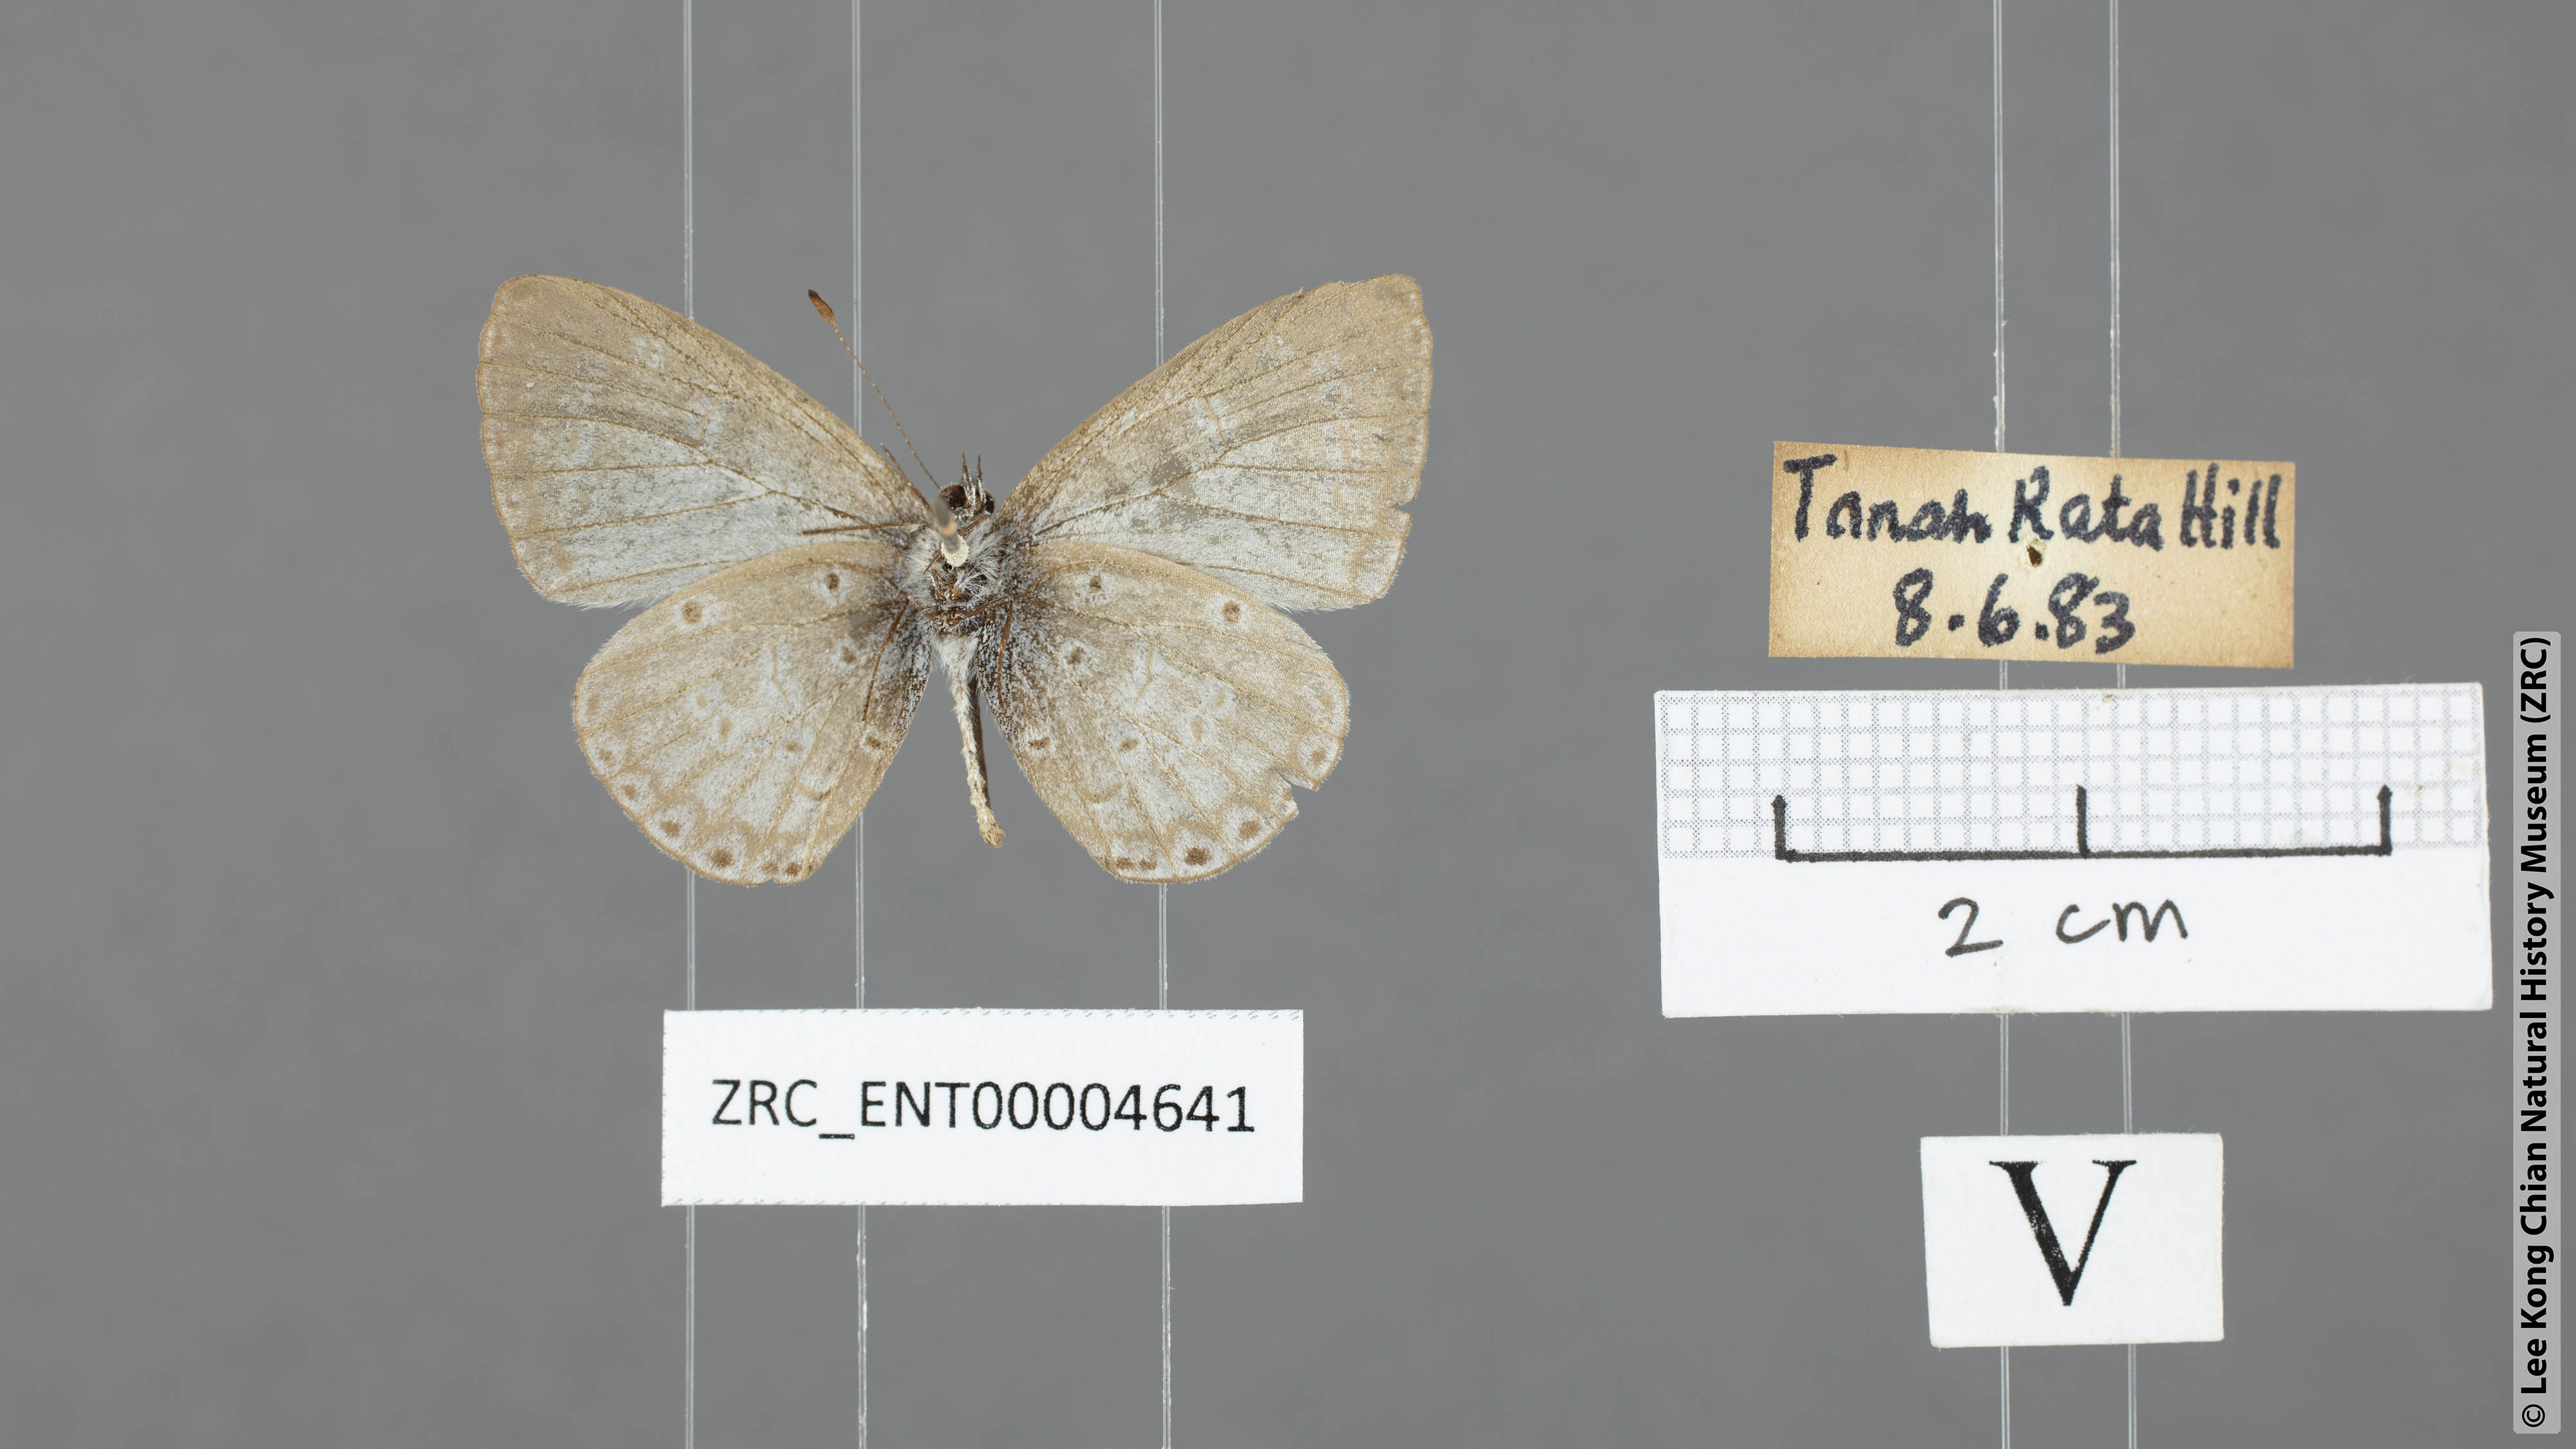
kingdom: Animalia
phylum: Arthropoda
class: Insecta
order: Lepidoptera
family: Lycaenidae
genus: Udara
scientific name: Udara
